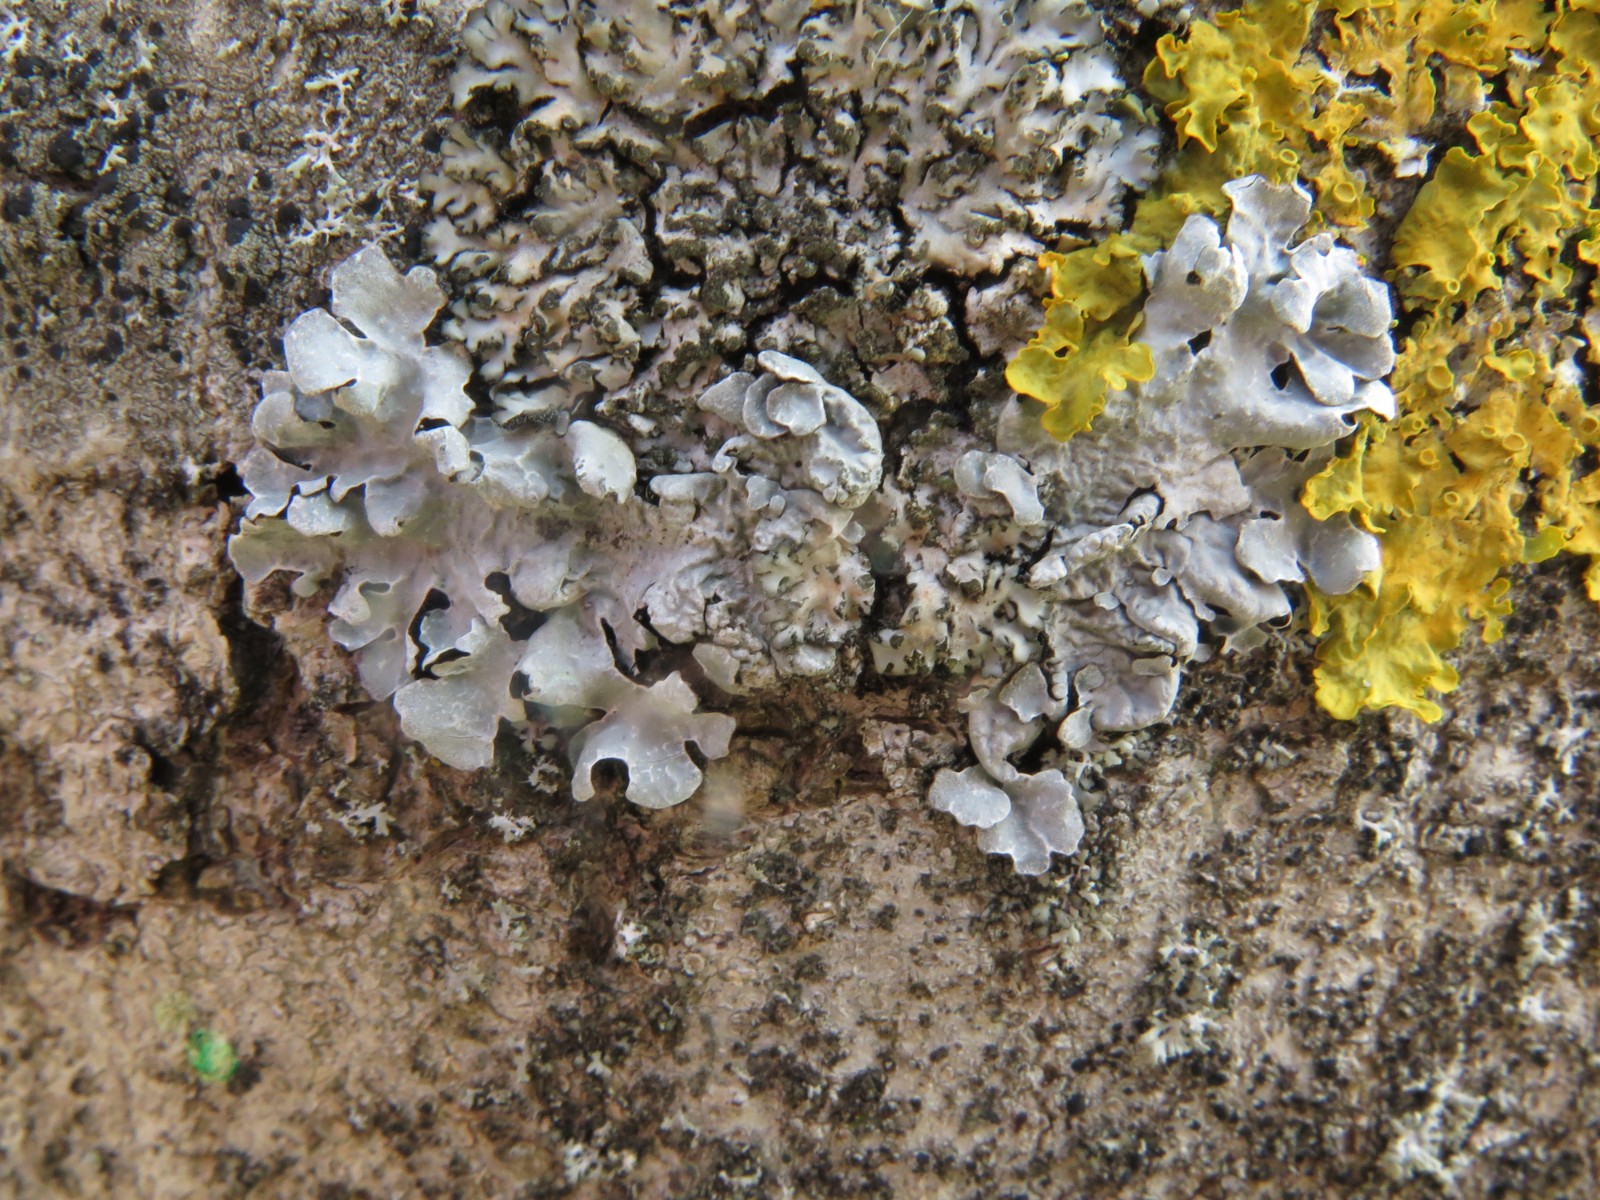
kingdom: Fungi
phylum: Ascomycota
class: Lecanoromycetes
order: Lecanorales
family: Parmeliaceae
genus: Parmelia
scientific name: Parmelia sulcata
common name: rynket skållav
